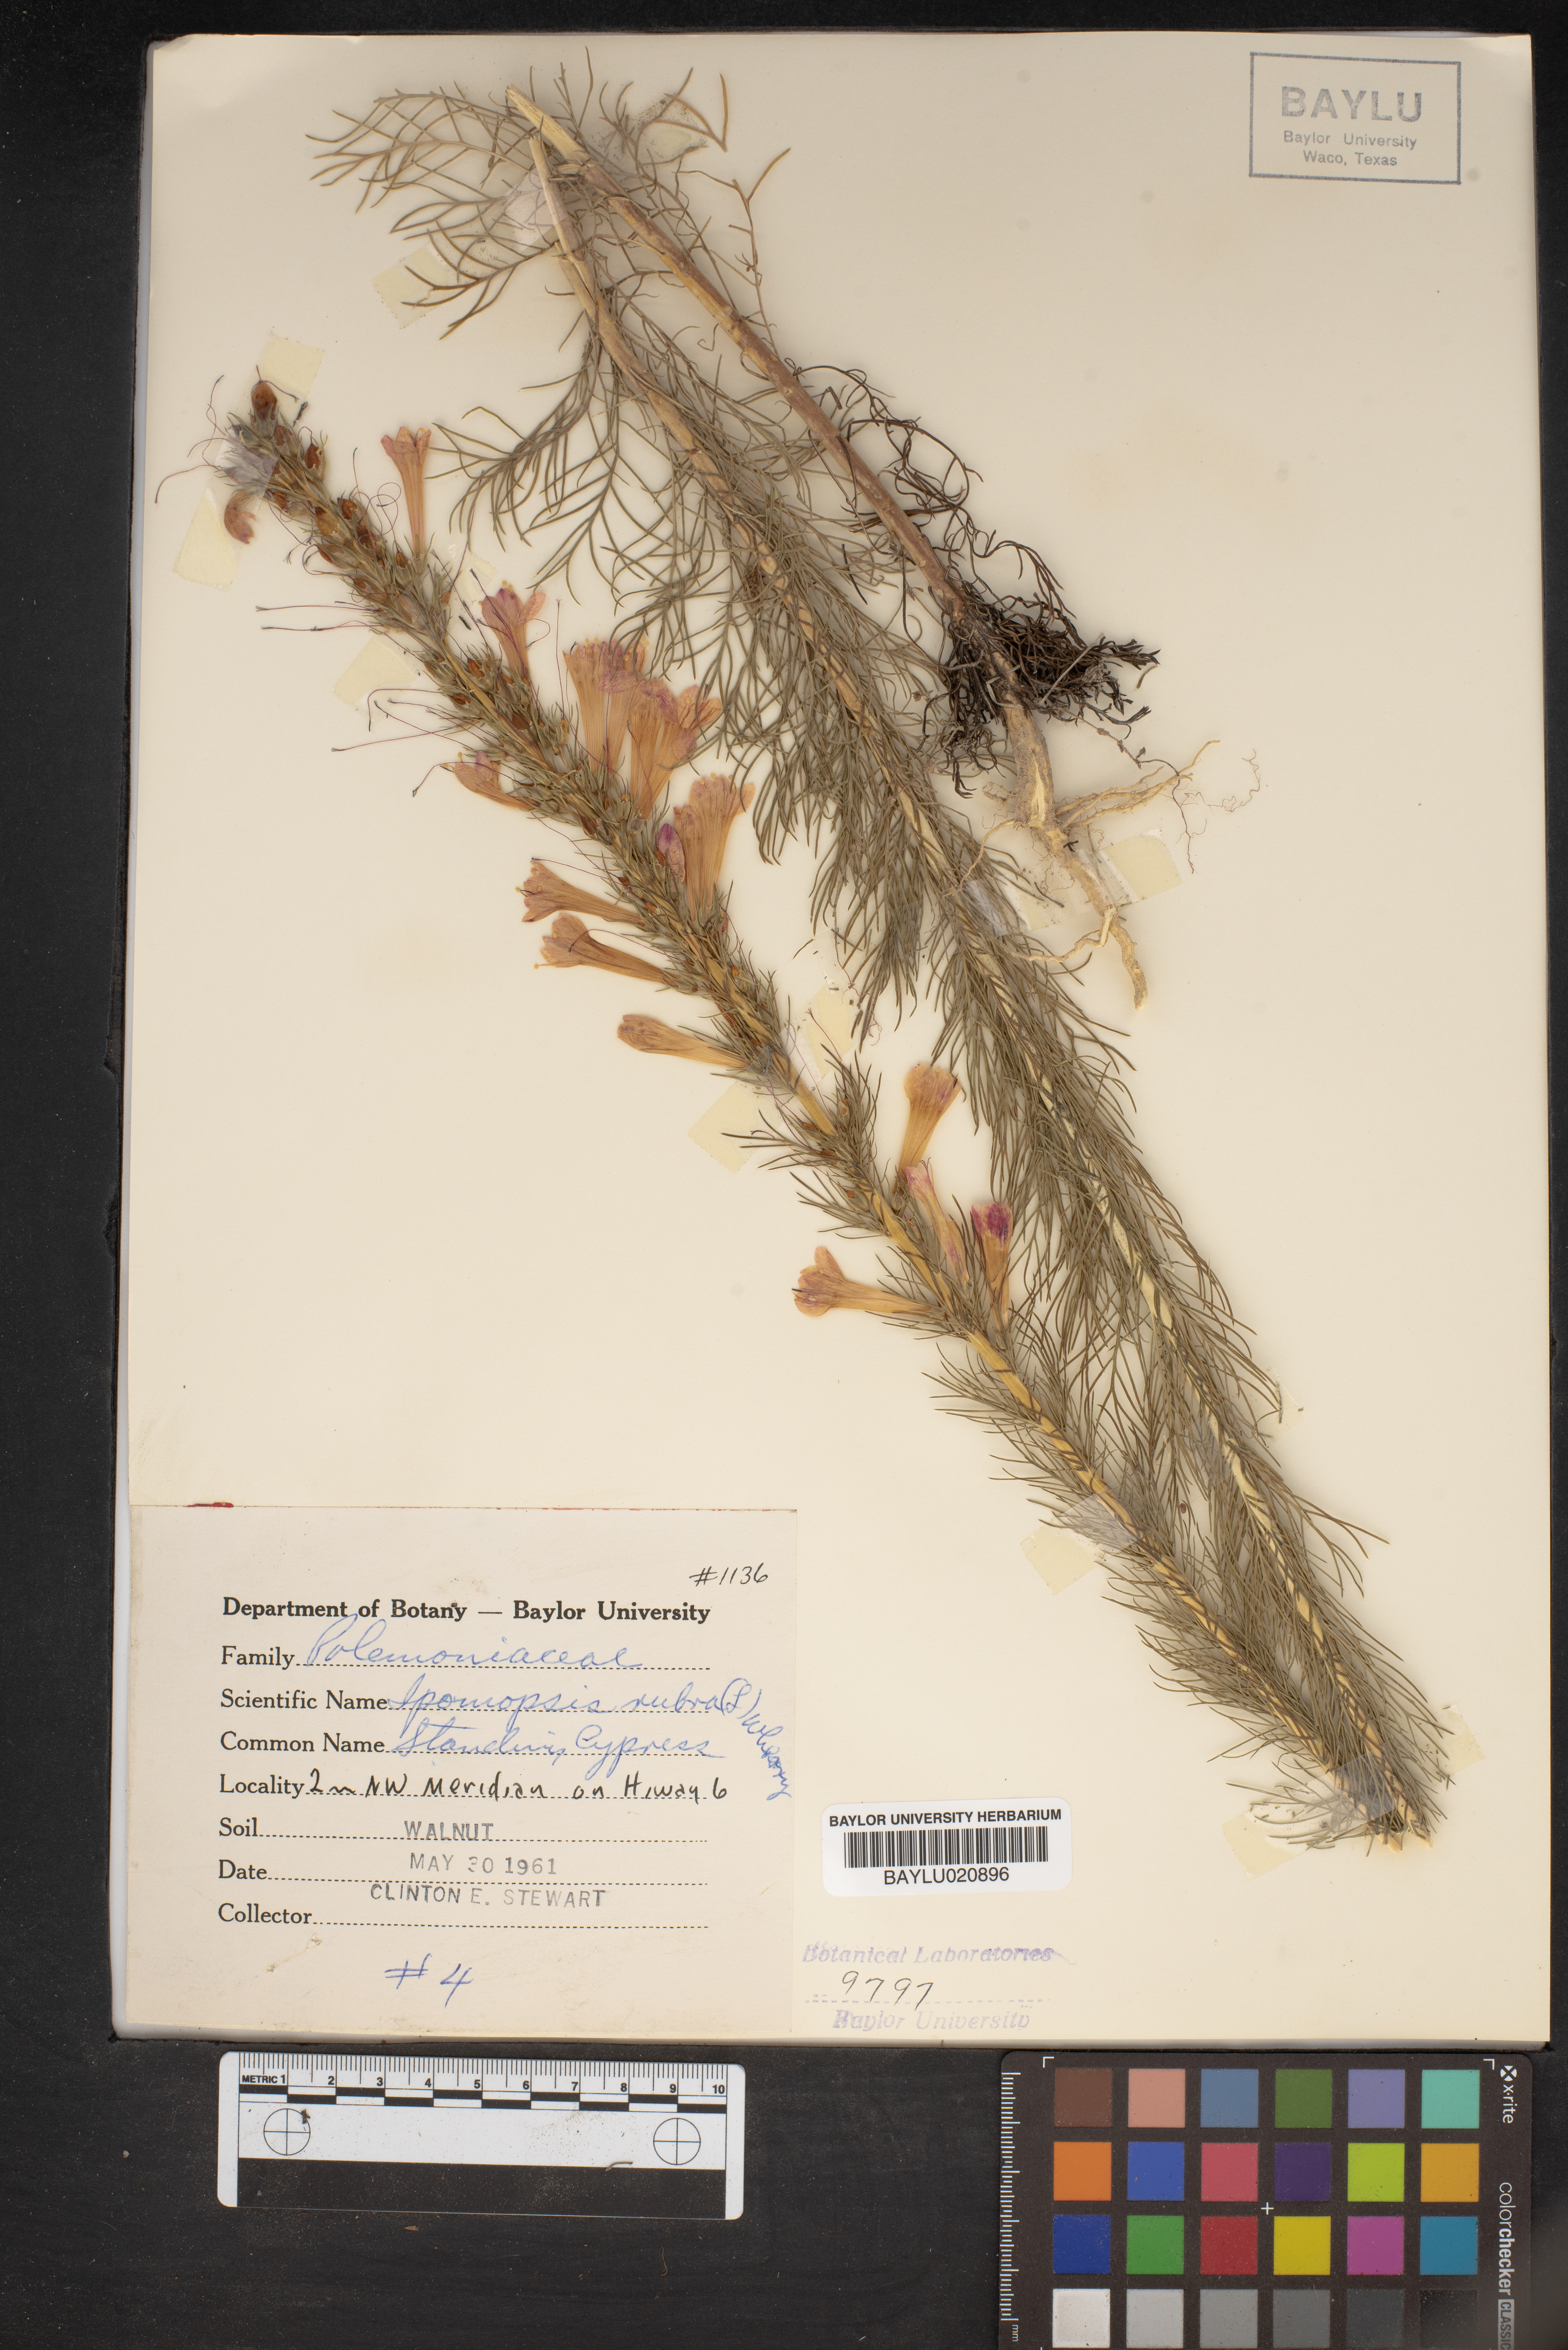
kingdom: Plantae
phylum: Tracheophyta
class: Magnoliopsida
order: Ericales
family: Polemoniaceae
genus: Ipomopsis
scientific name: Ipomopsis rubra
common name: Skyrocket
